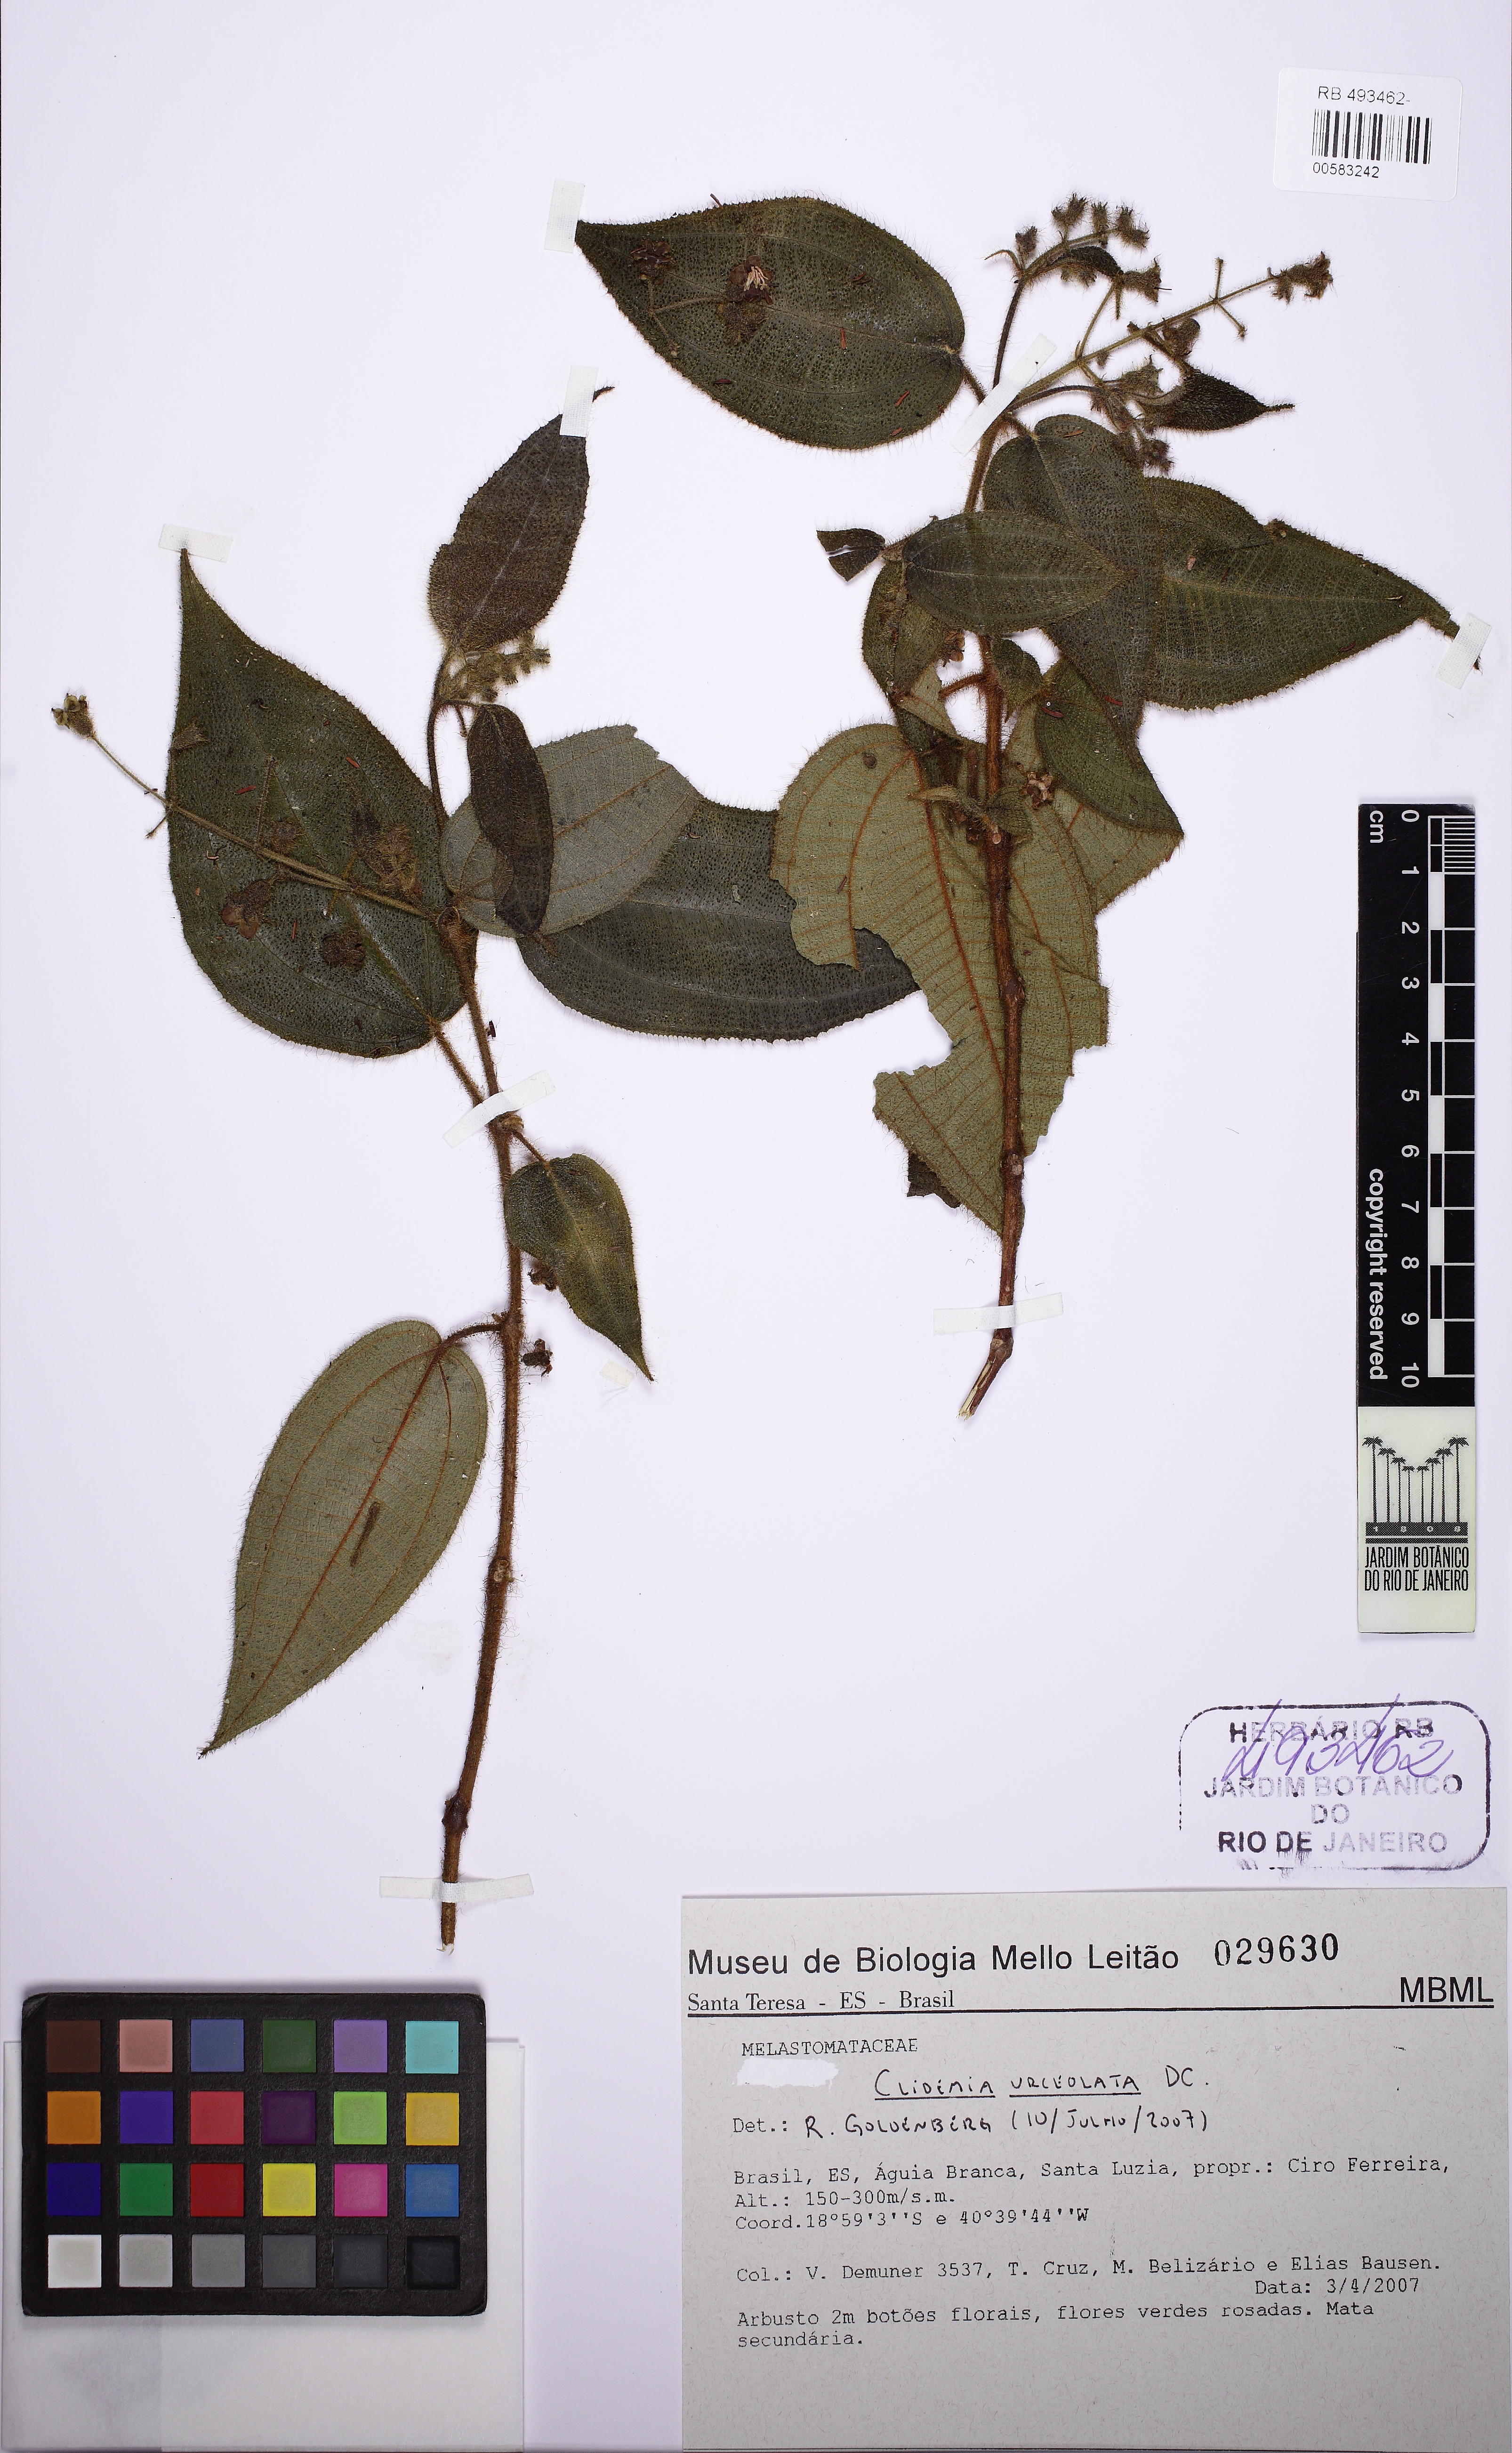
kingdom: Plantae
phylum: Tracheophyta
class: Magnoliopsida
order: Myrtales
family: Melastomataceae
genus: Miconia
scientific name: Miconia neourceolata
